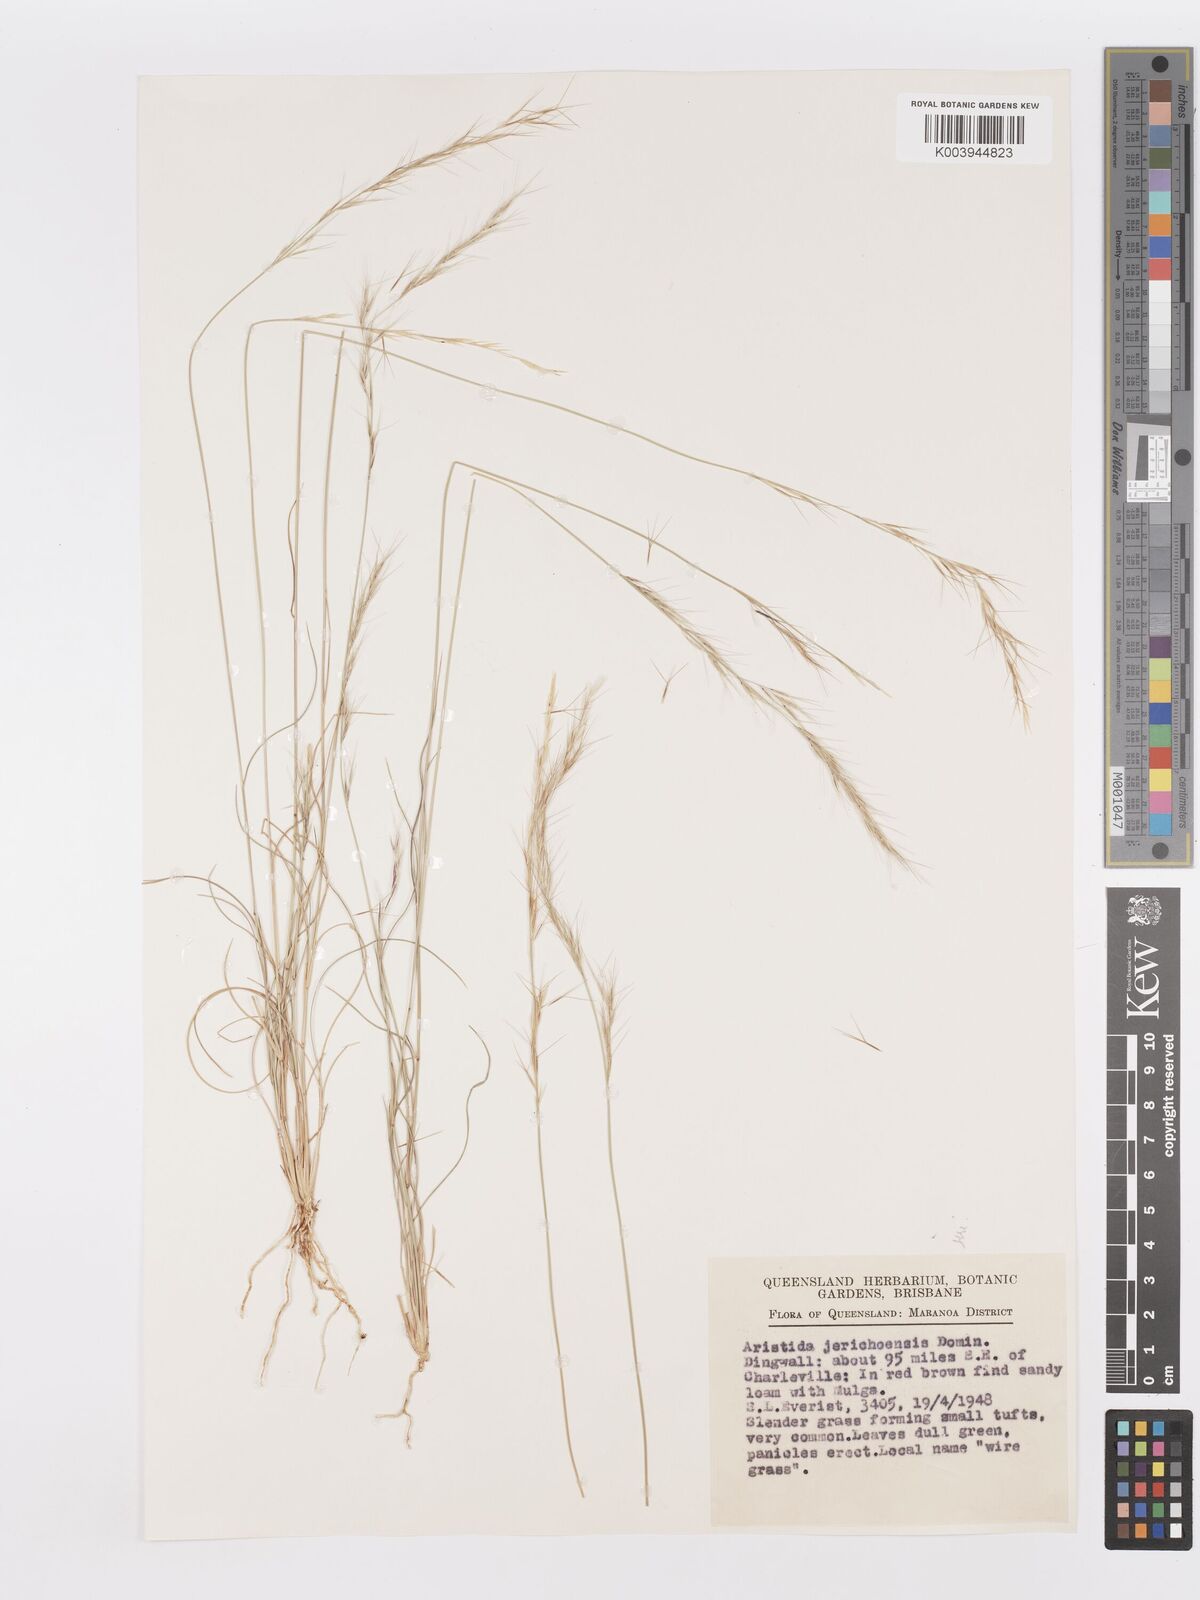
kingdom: Plantae
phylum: Tracheophyta
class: Liliopsida
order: Poales
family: Poaceae
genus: Aristida
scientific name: Aristida jerichoensis
